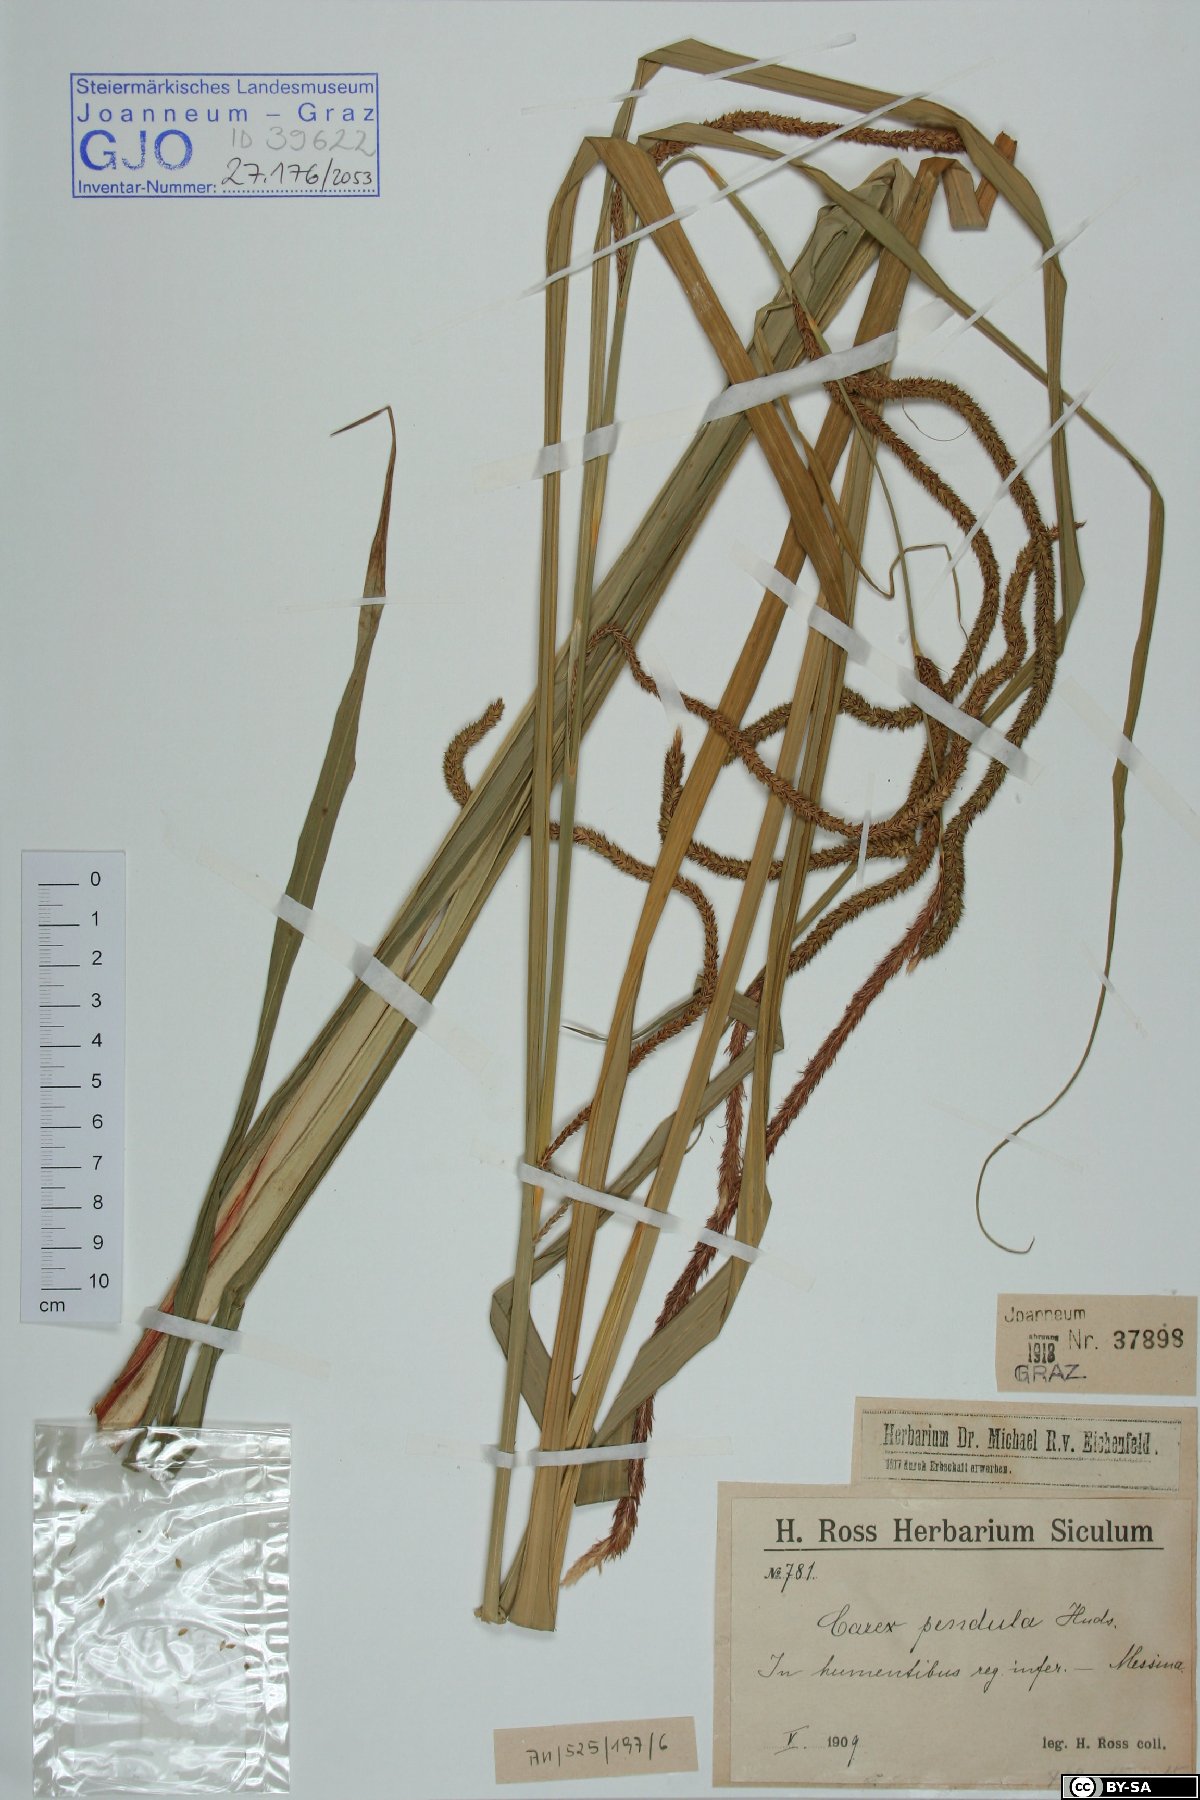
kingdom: Plantae
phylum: Tracheophyta
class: Liliopsida
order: Poales
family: Cyperaceae
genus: Carex
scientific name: Carex pendula
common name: Pendulous sedge
